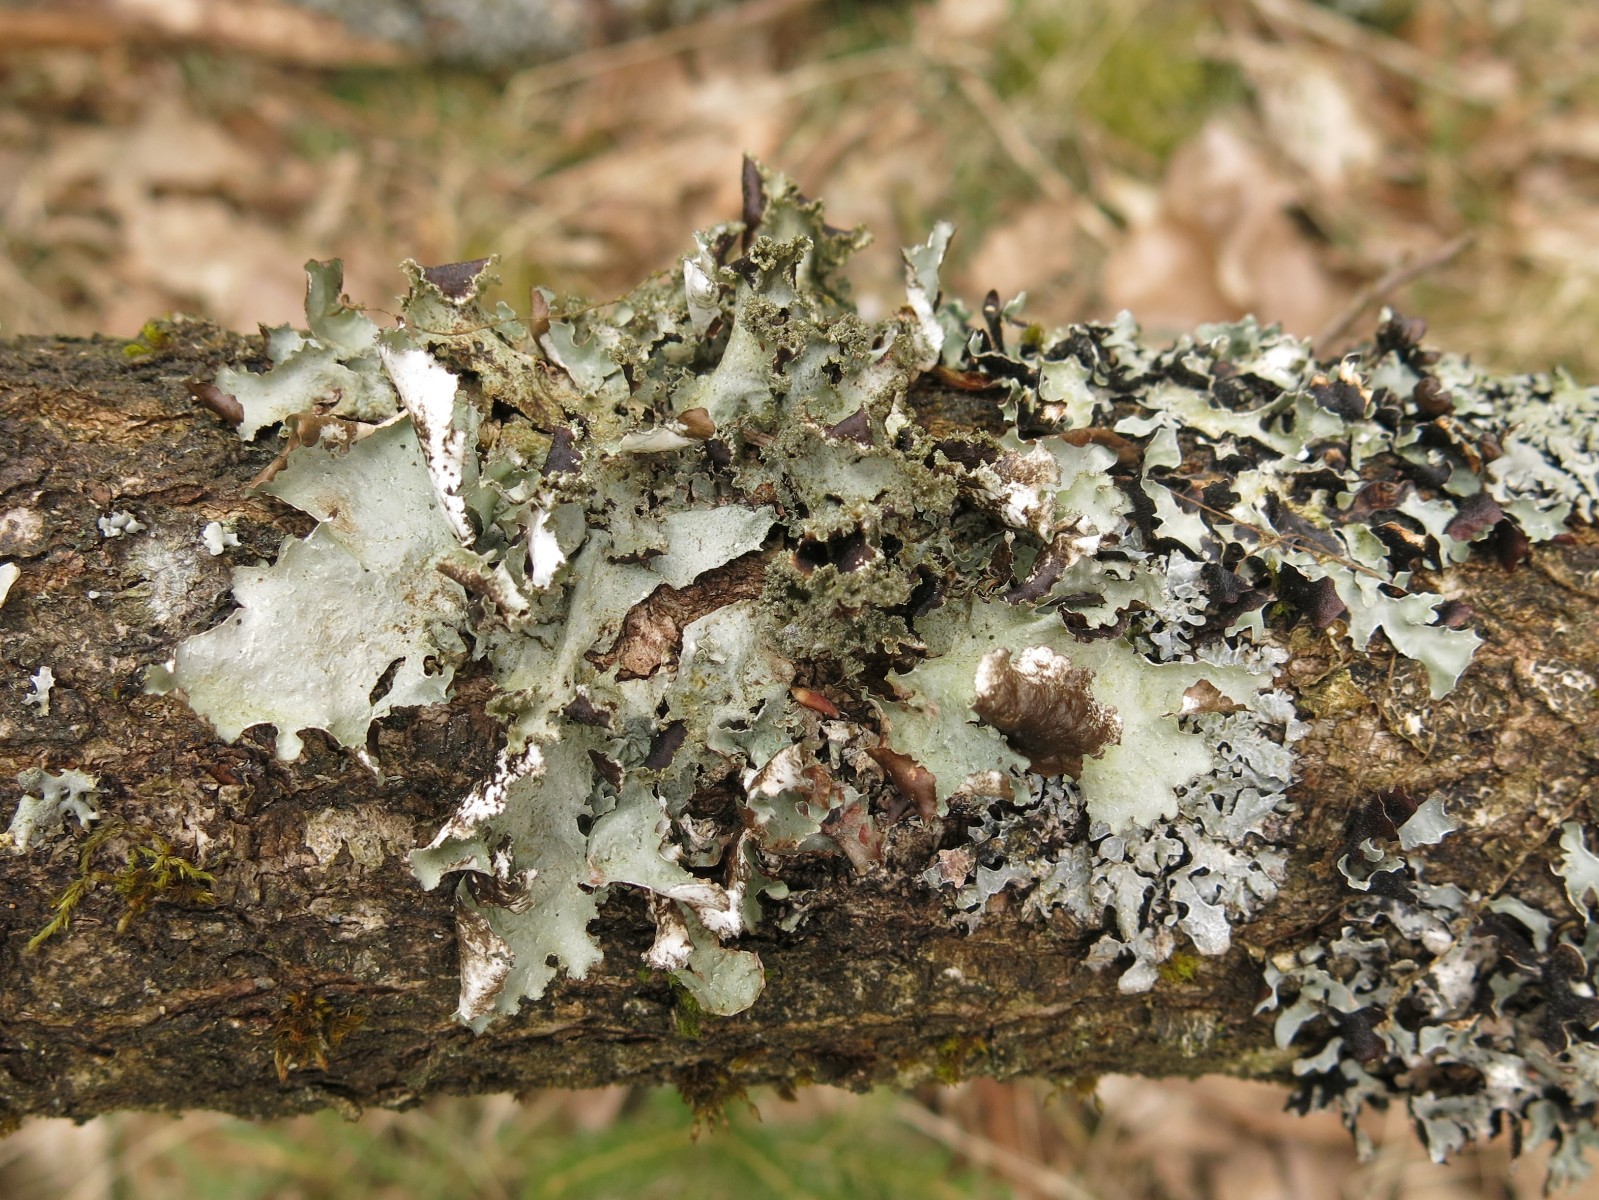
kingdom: Fungi
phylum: Ascomycota
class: Lecanoromycetes
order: Lecanorales
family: Parmeliaceae
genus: Platismatia
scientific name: Platismatia glauca
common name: blågrå papirlav
